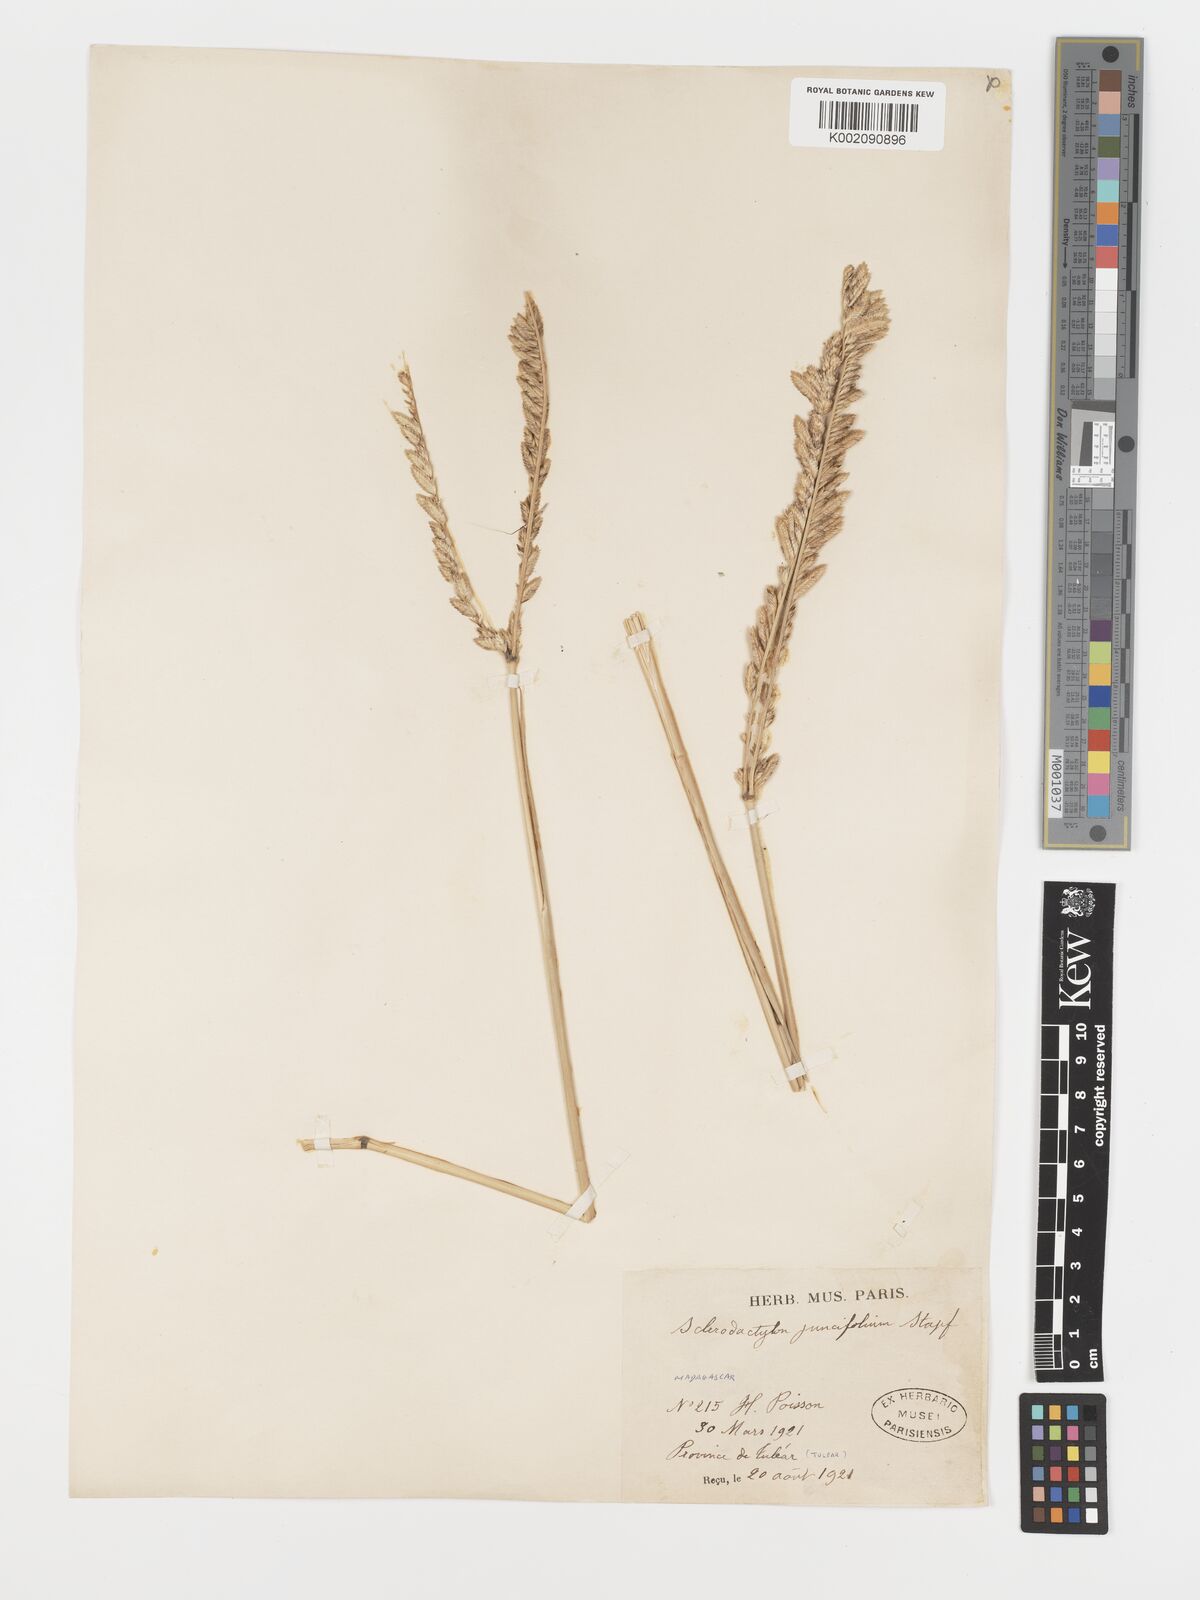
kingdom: Plantae
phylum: Tracheophyta
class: Liliopsida
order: Poales
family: Poaceae
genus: Sclerodactylon
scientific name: Sclerodactylon macrostachyum
